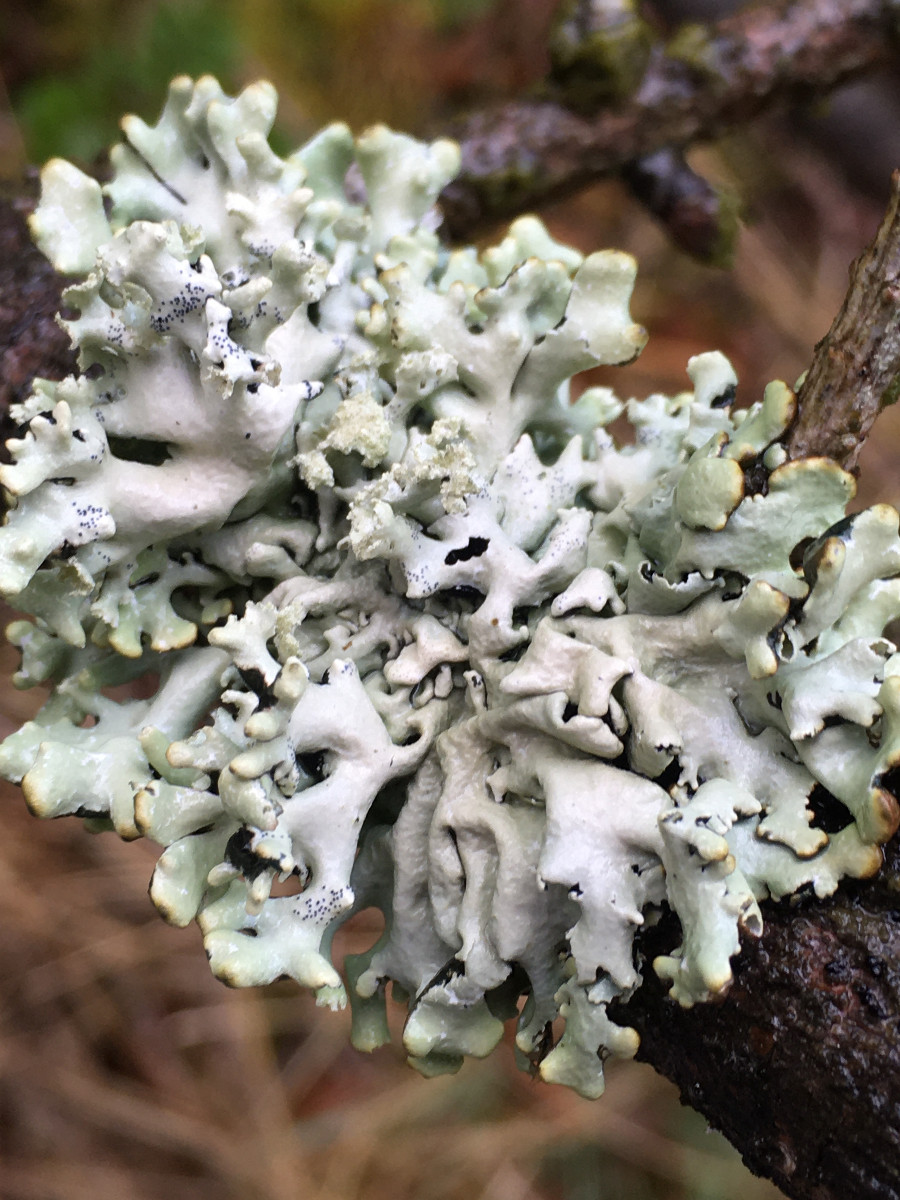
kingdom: Fungi
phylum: Ascomycota
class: Lecanoromycetes
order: Lecanorales
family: Parmeliaceae
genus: Hypogymnia
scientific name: Hypogymnia physodes
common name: almindelig kvistlav
